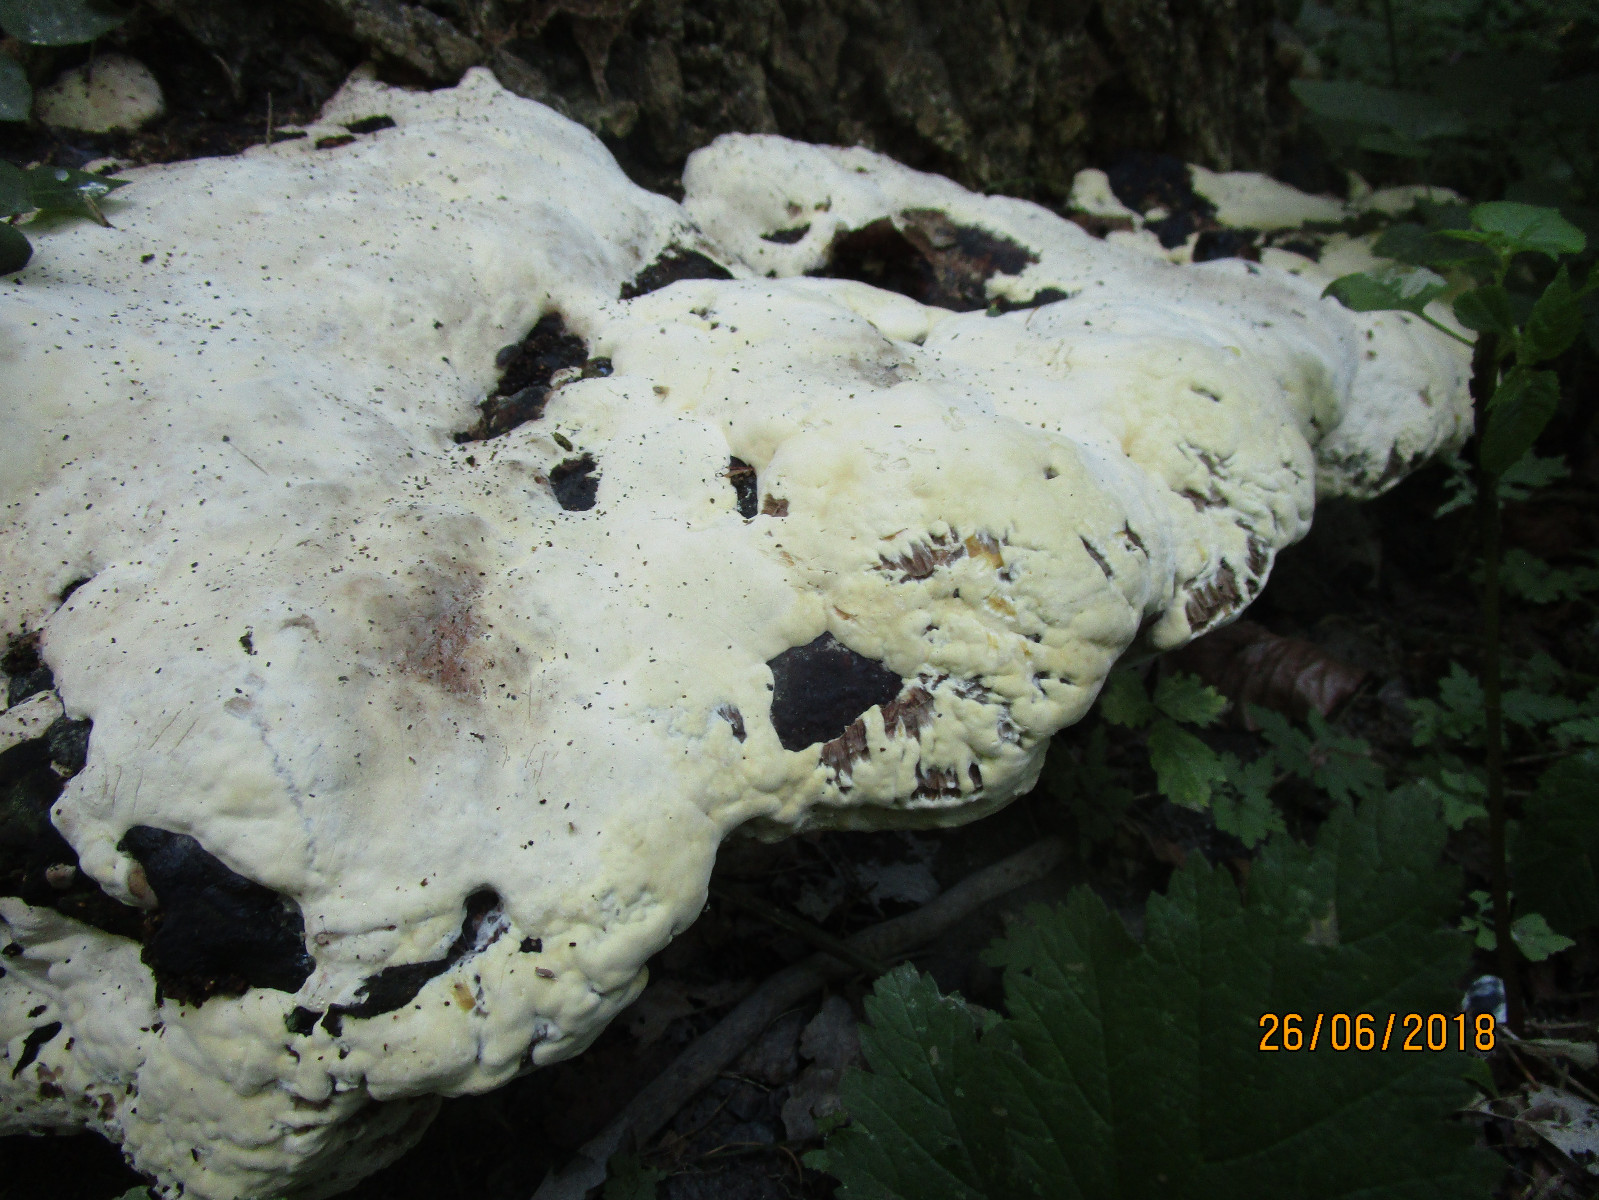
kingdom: Fungi
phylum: Basidiomycota
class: Agaricomycetes
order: Polyporales
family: Polyporaceae
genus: Vanderbylia
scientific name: Vanderbylia fraxinea
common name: stor kanelporesvamp
